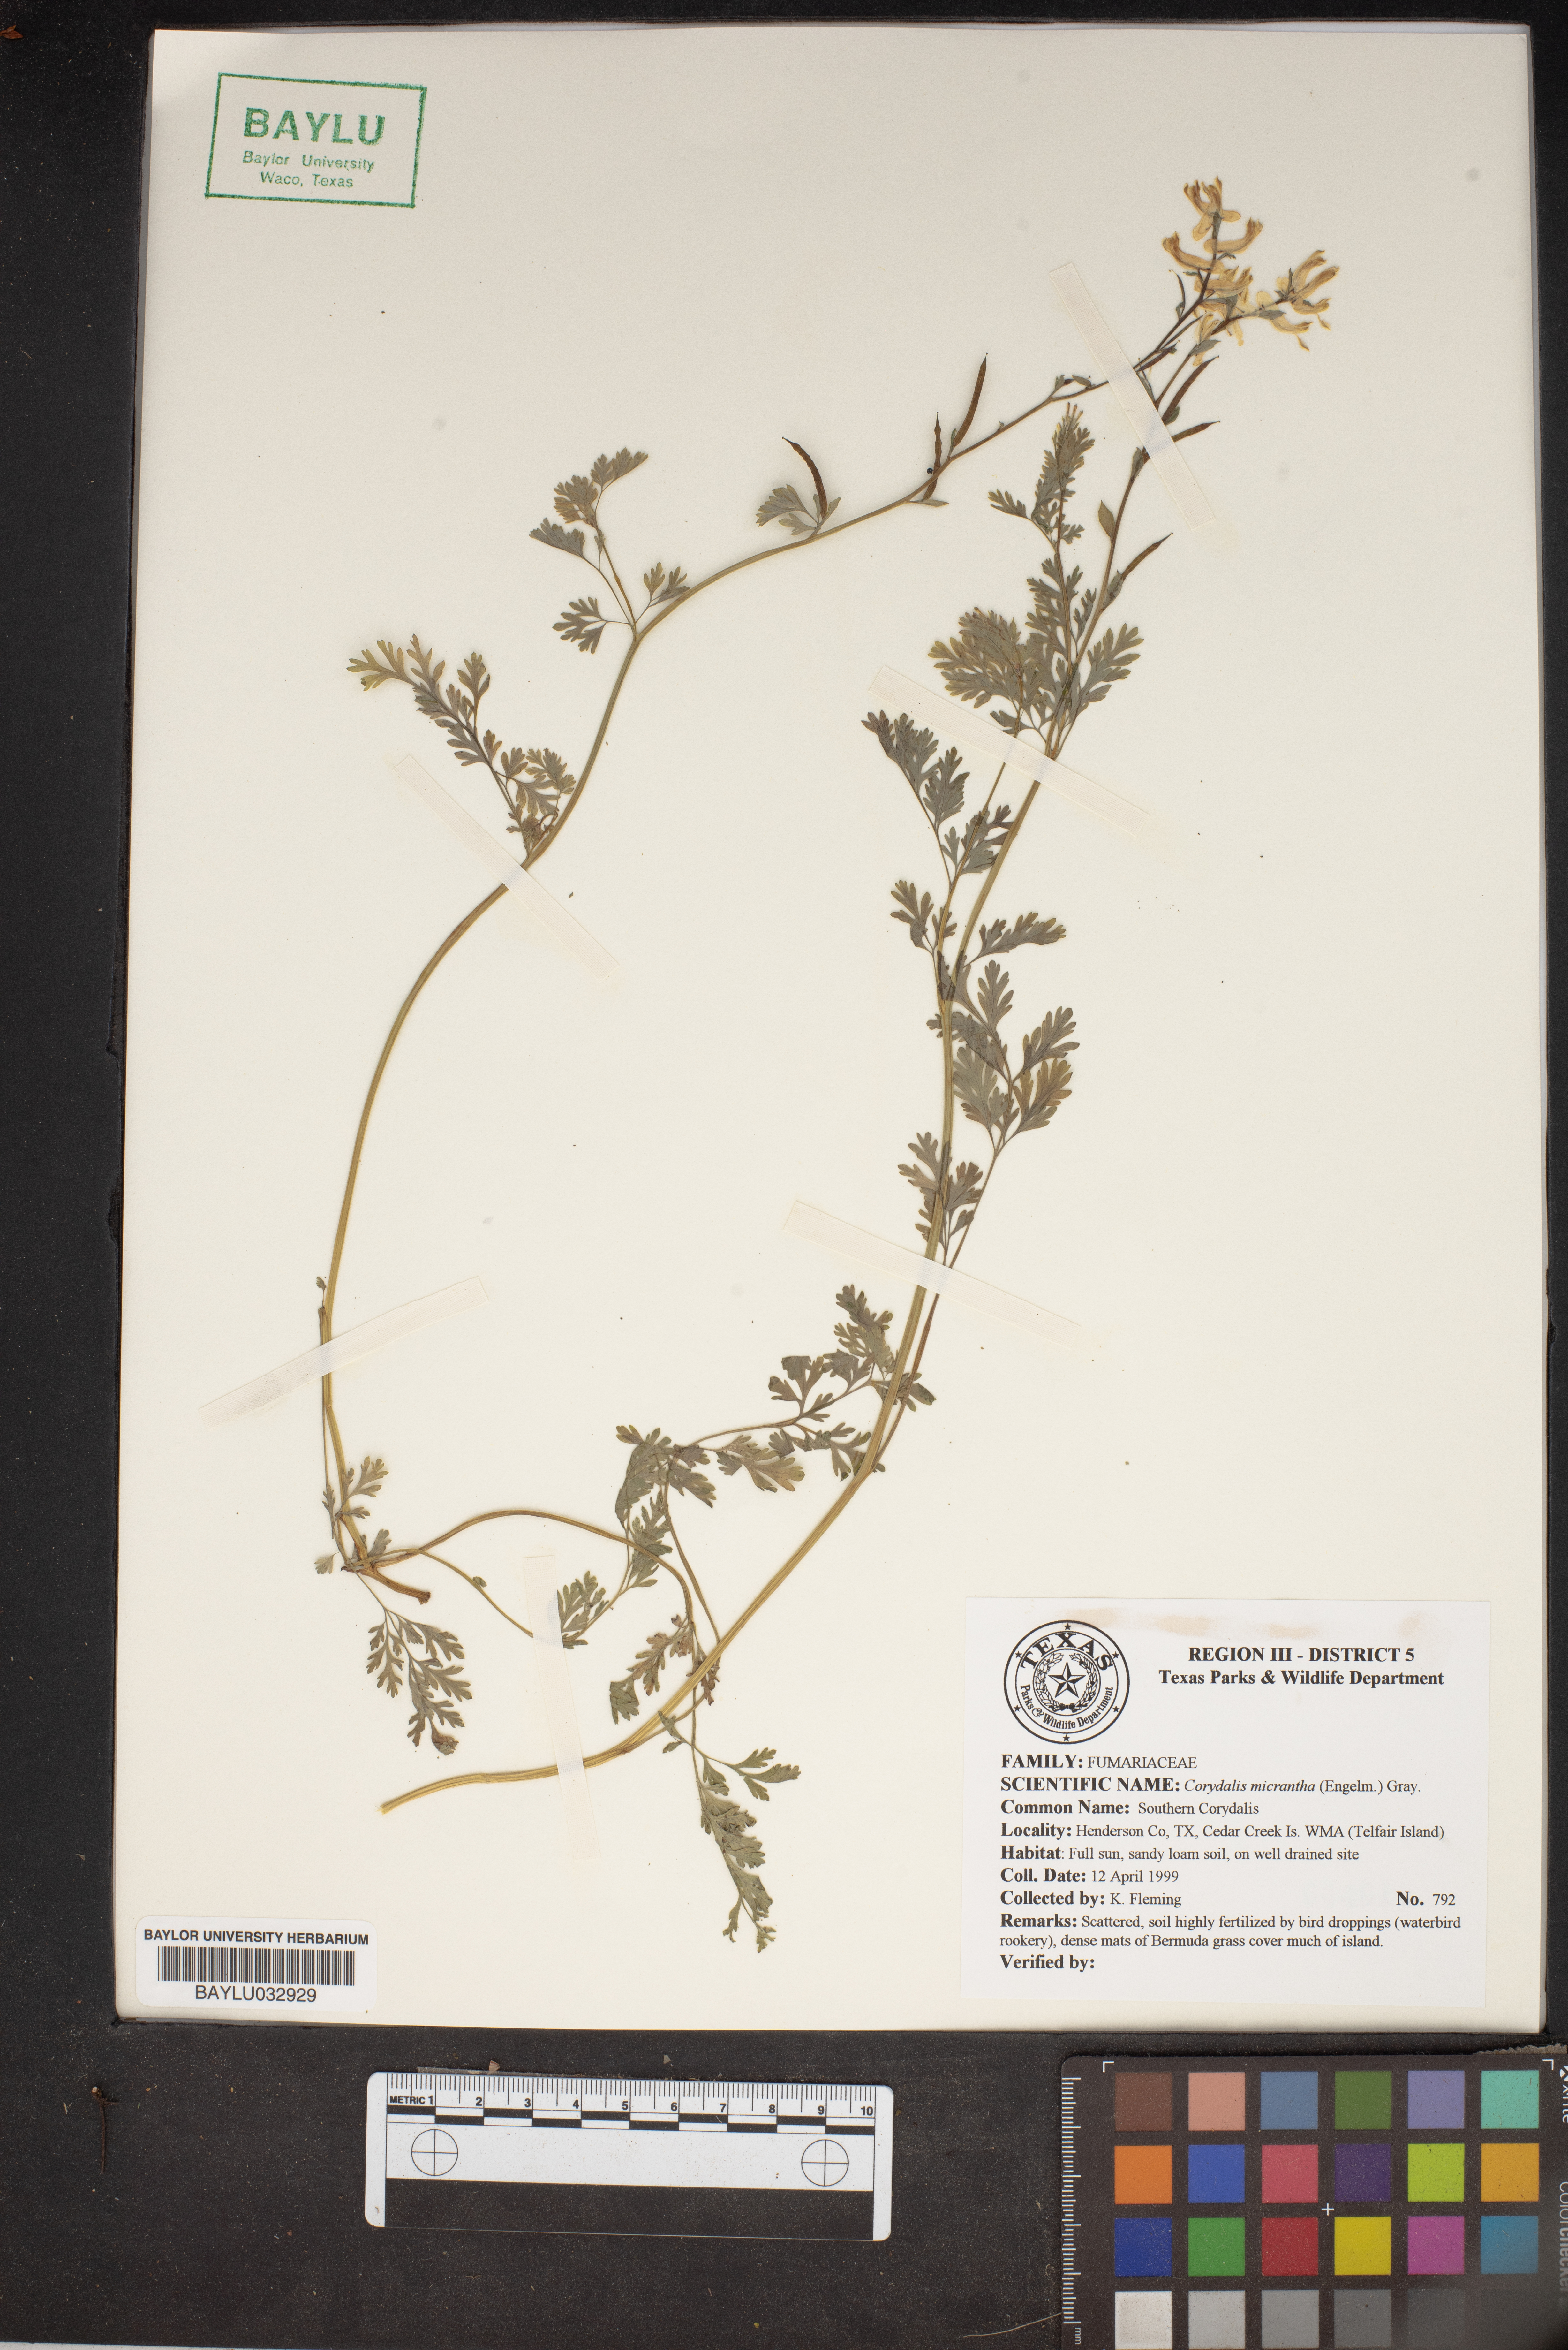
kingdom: Plantae
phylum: Tracheophyta
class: Magnoliopsida
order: Ranunculales
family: Papaveraceae
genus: Corydalis
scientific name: Corydalis micrantha
